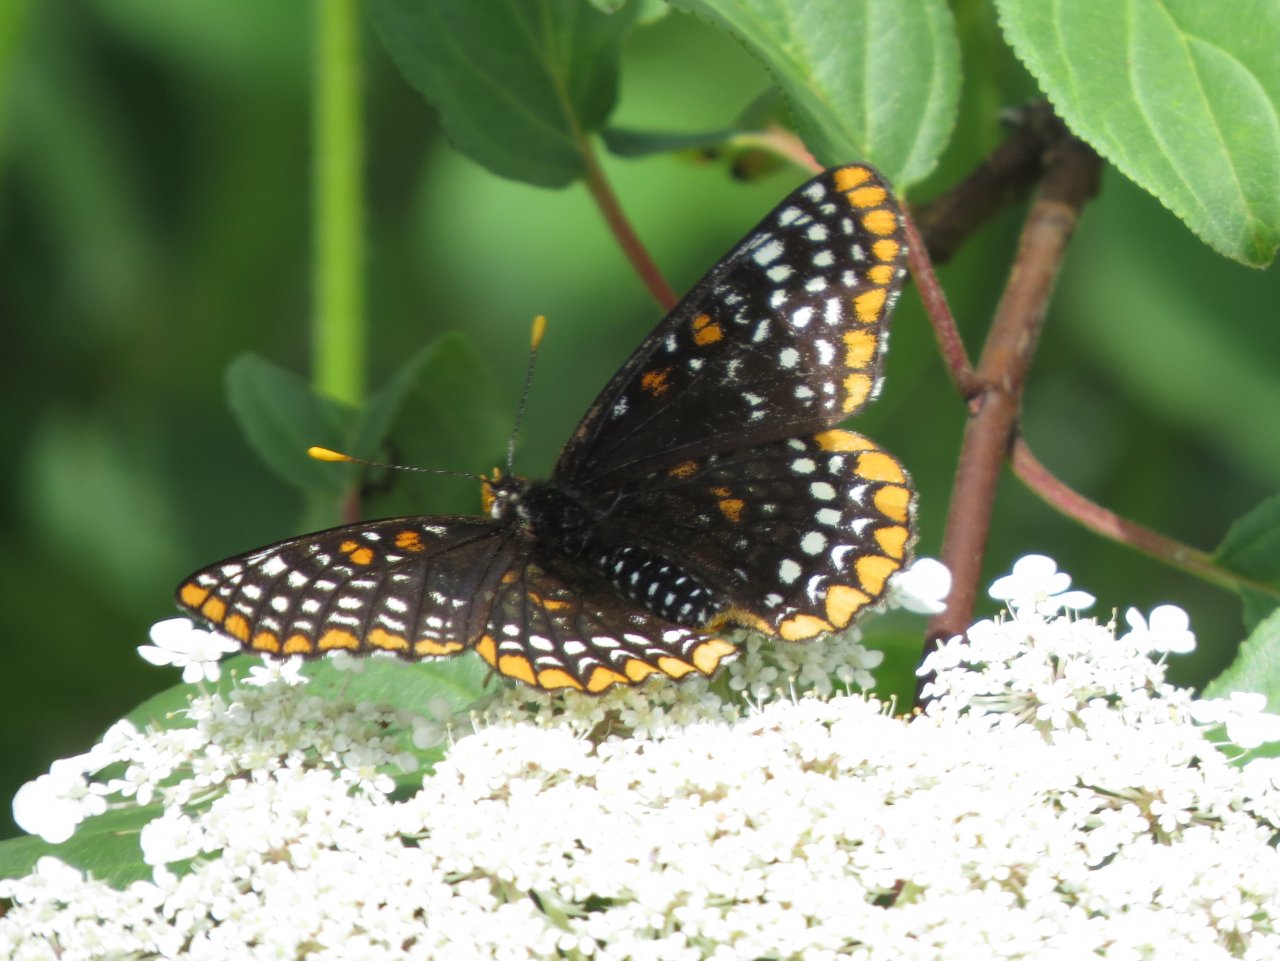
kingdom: Animalia
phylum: Arthropoda
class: Insecta
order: Lepidoptera
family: Nymphalidae
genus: Euphydryas
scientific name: Euphydryas phaeton
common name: Baltimore Checkerspot
